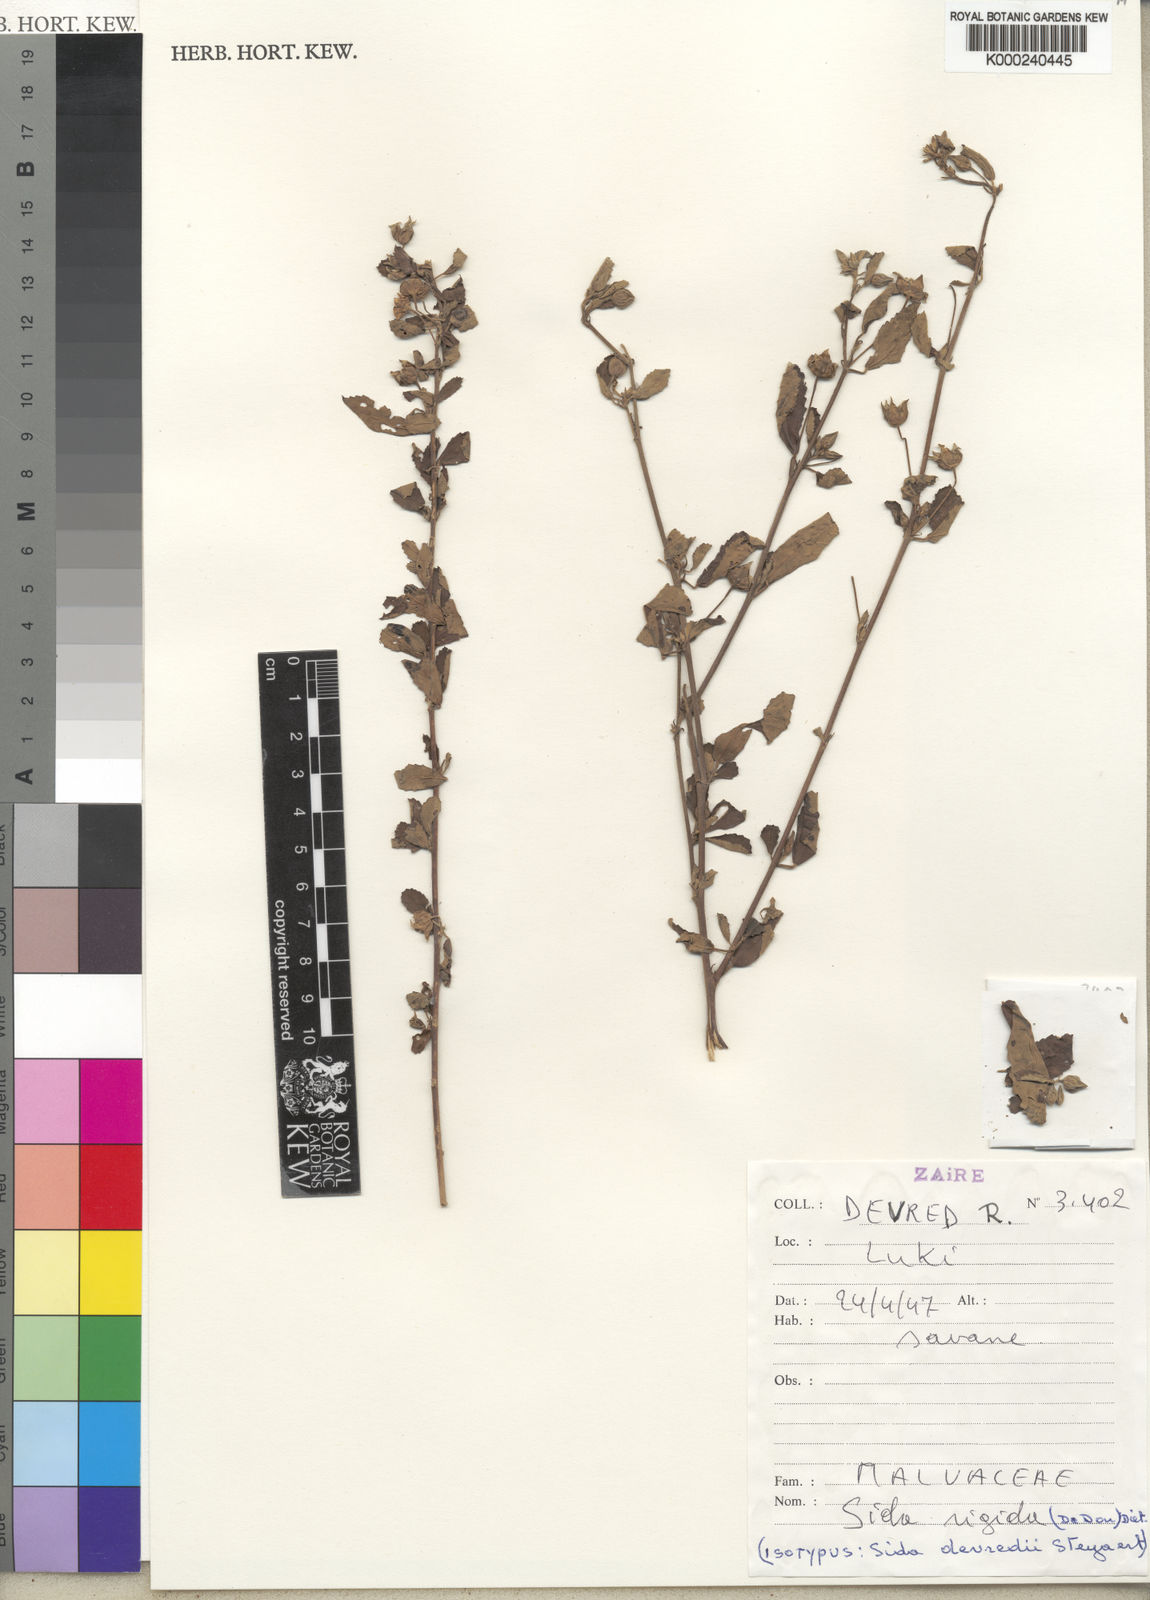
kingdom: Plantae
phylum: Tracheophyta
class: Magnoliopsida
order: Malvales
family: Malvaceae
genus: Sida
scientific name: Sida rigida
